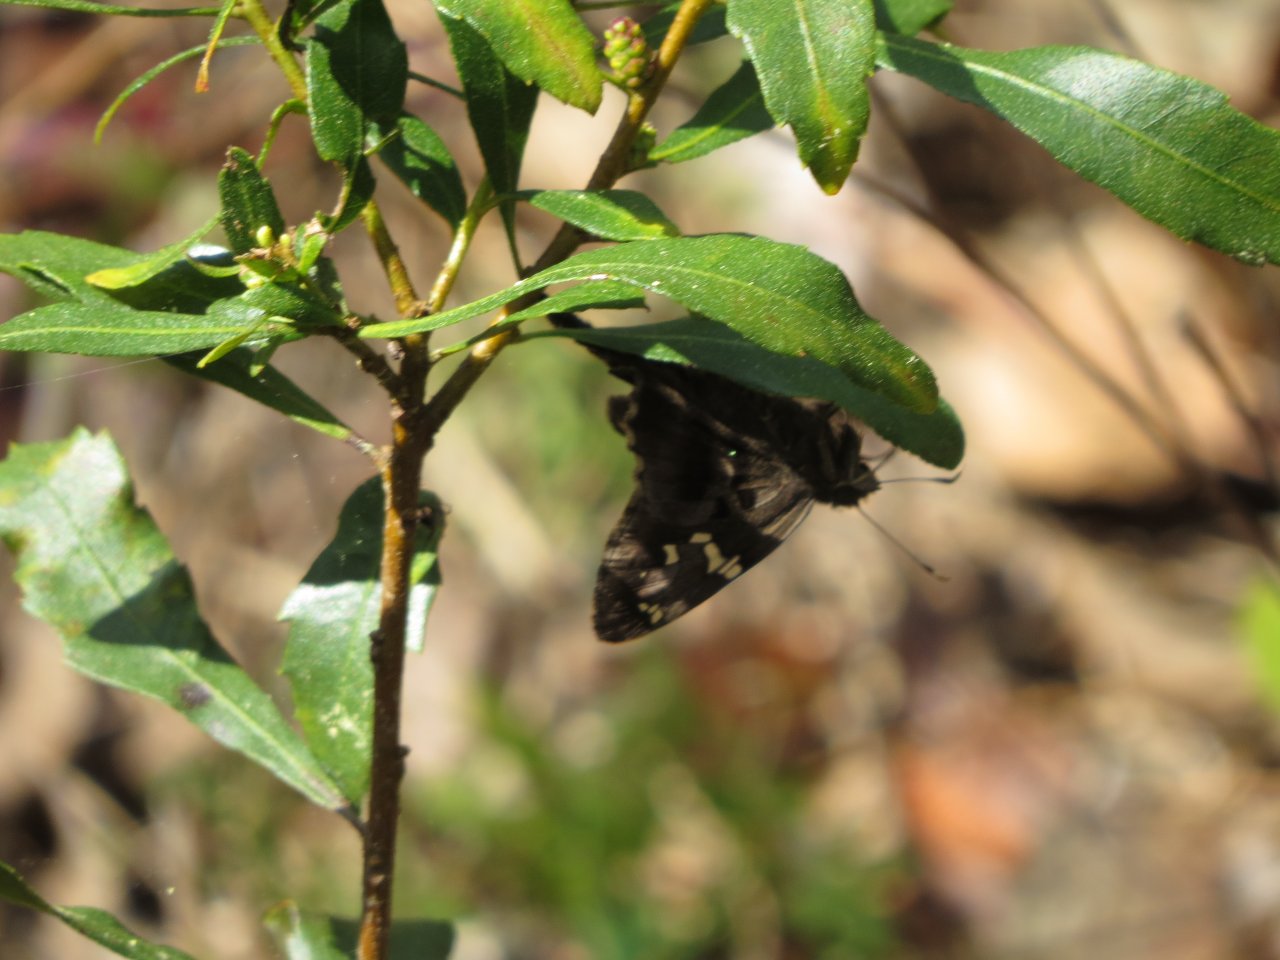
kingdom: Animalia
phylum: Arthropoda
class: Insecta
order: Lepidoptera
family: Hesperiidae
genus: Urbanus
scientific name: Urbanus proteus
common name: Long-tailed Skipper
